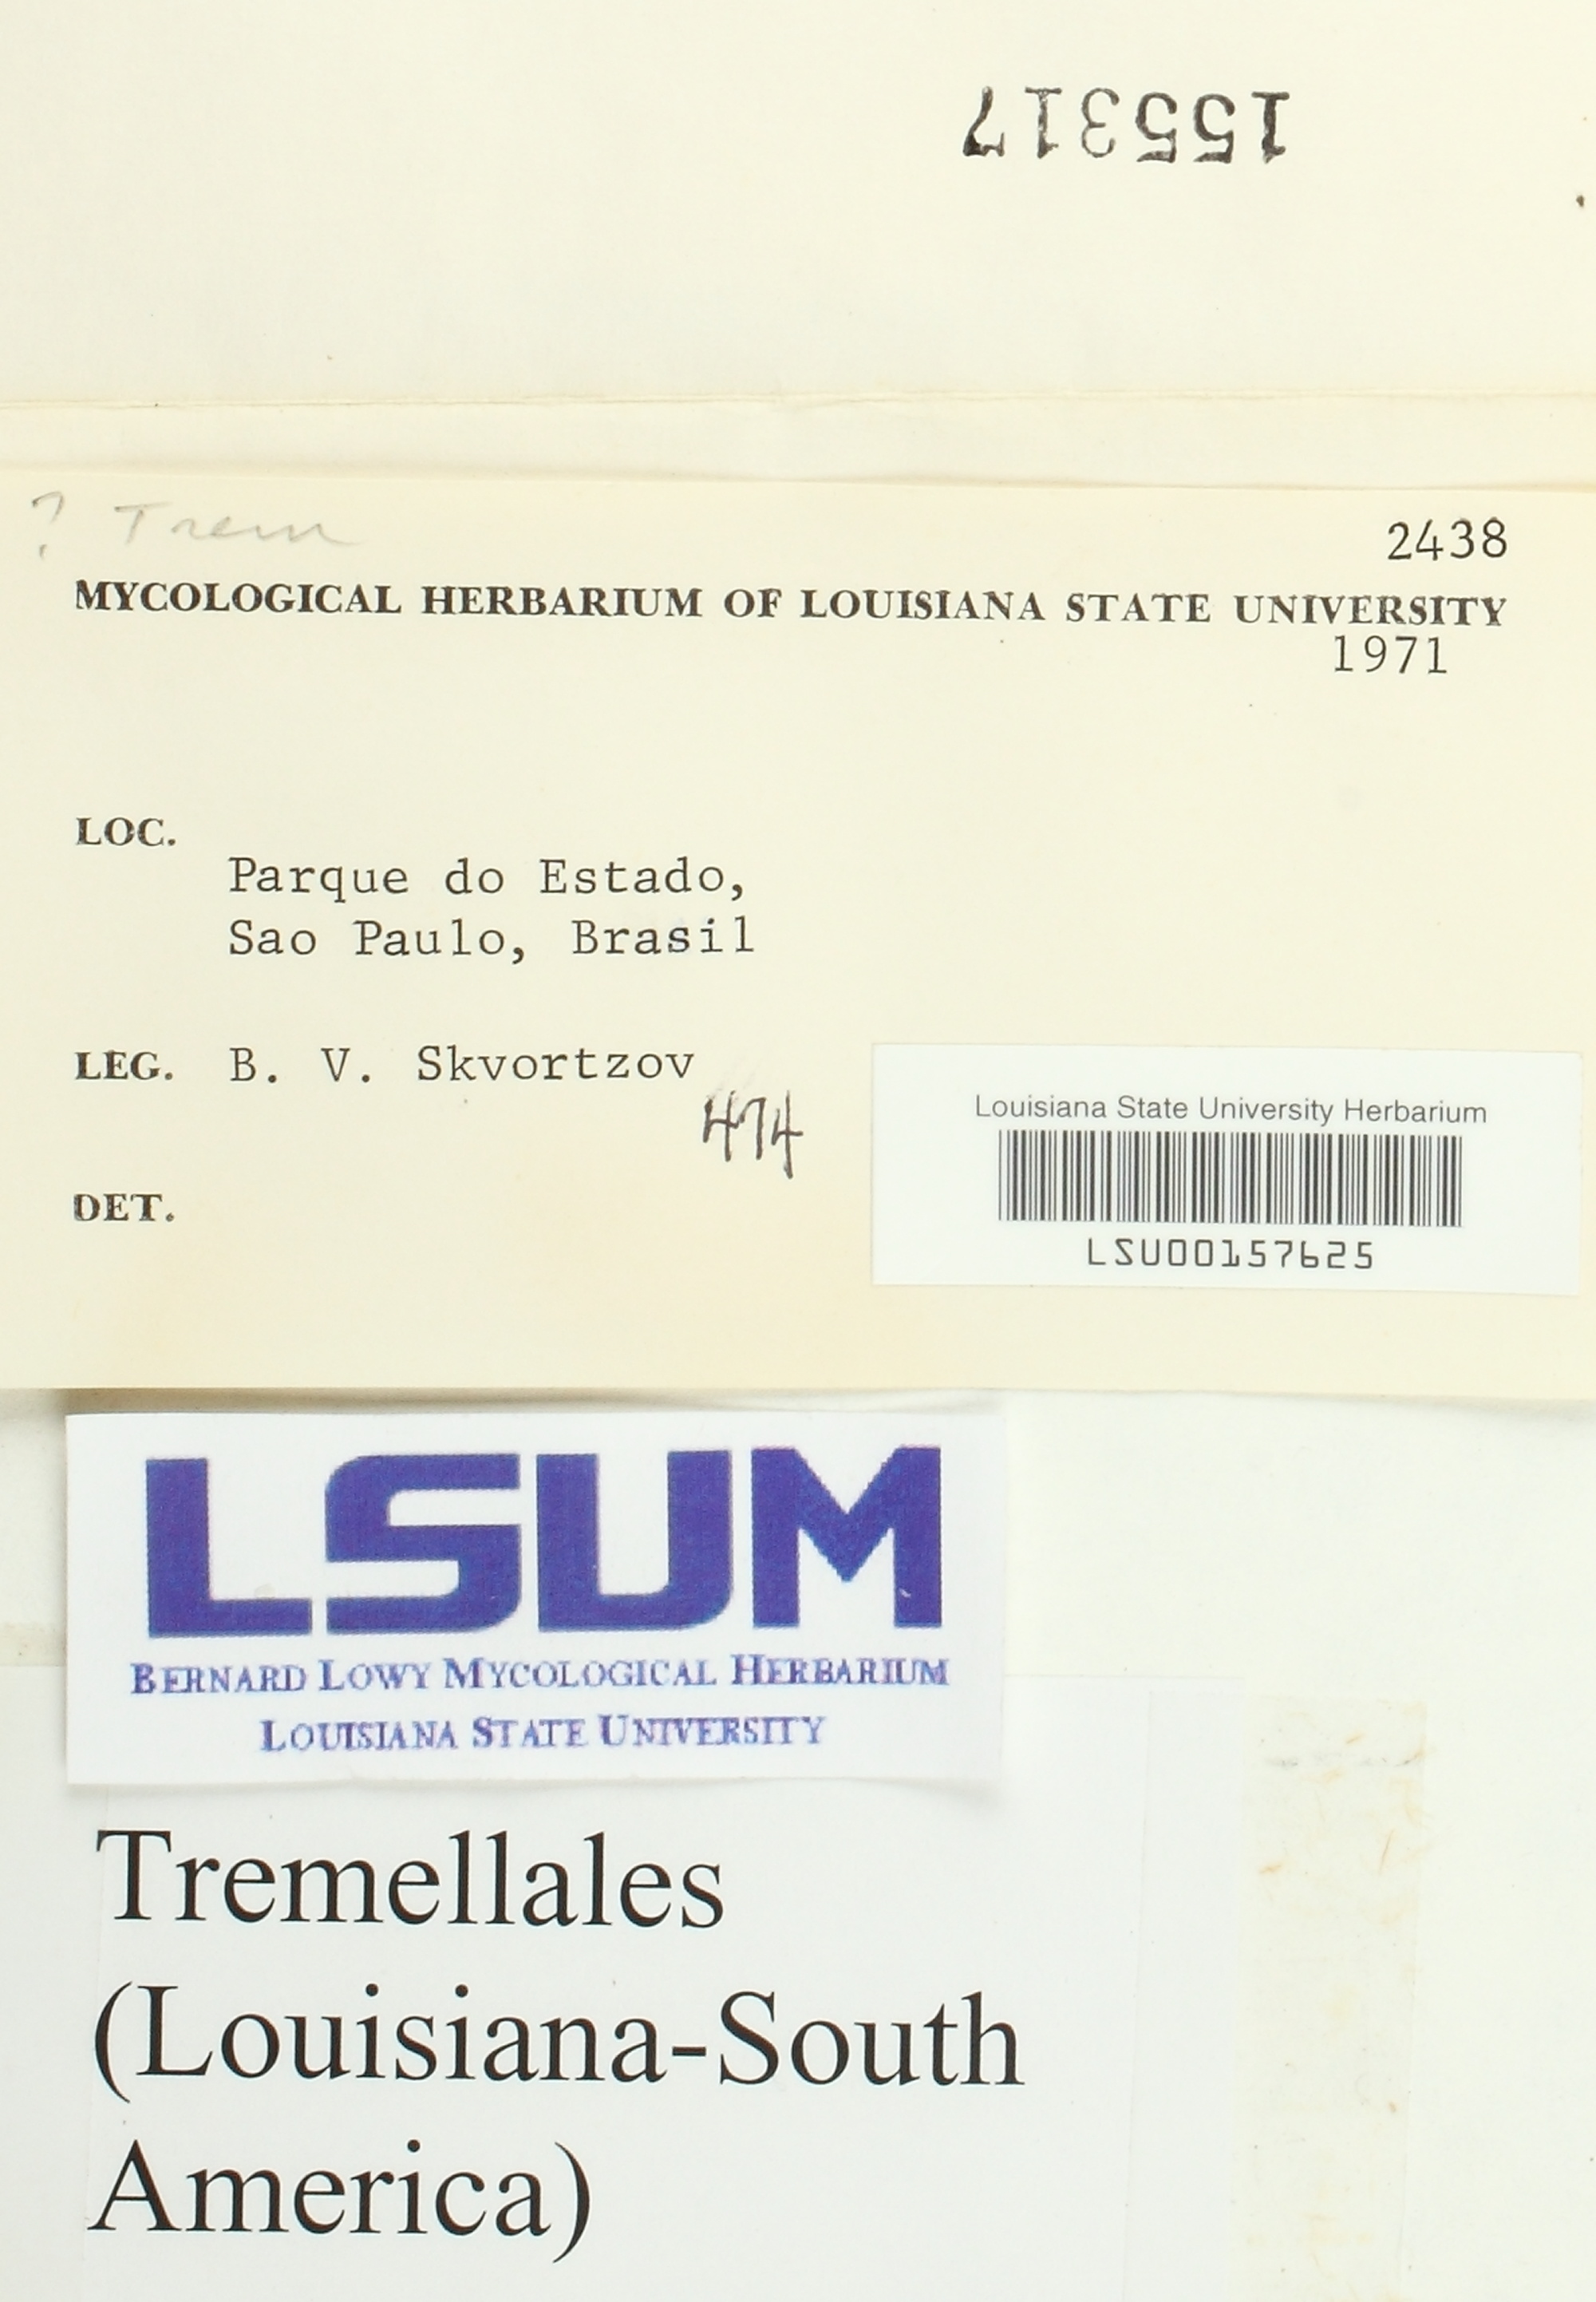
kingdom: Fungi
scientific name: Fungi
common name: Fungi
